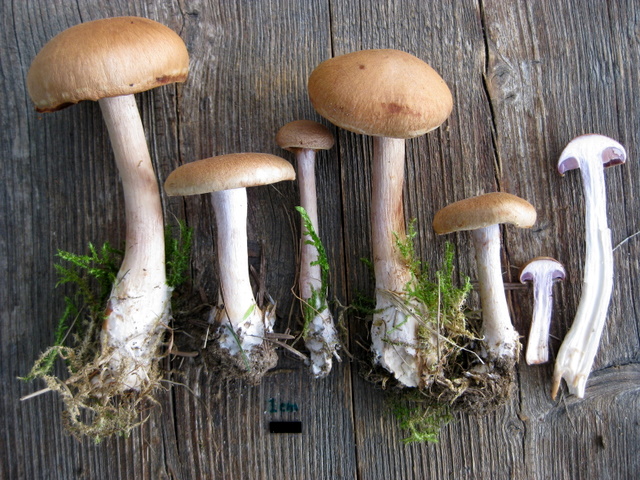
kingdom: Fungi
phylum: Basidiomycota
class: Agaricomycetes
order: Agaricales
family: Cortinariaceae
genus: Cortinarius
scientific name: Cortinarius caninus
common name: gran-slørhat
